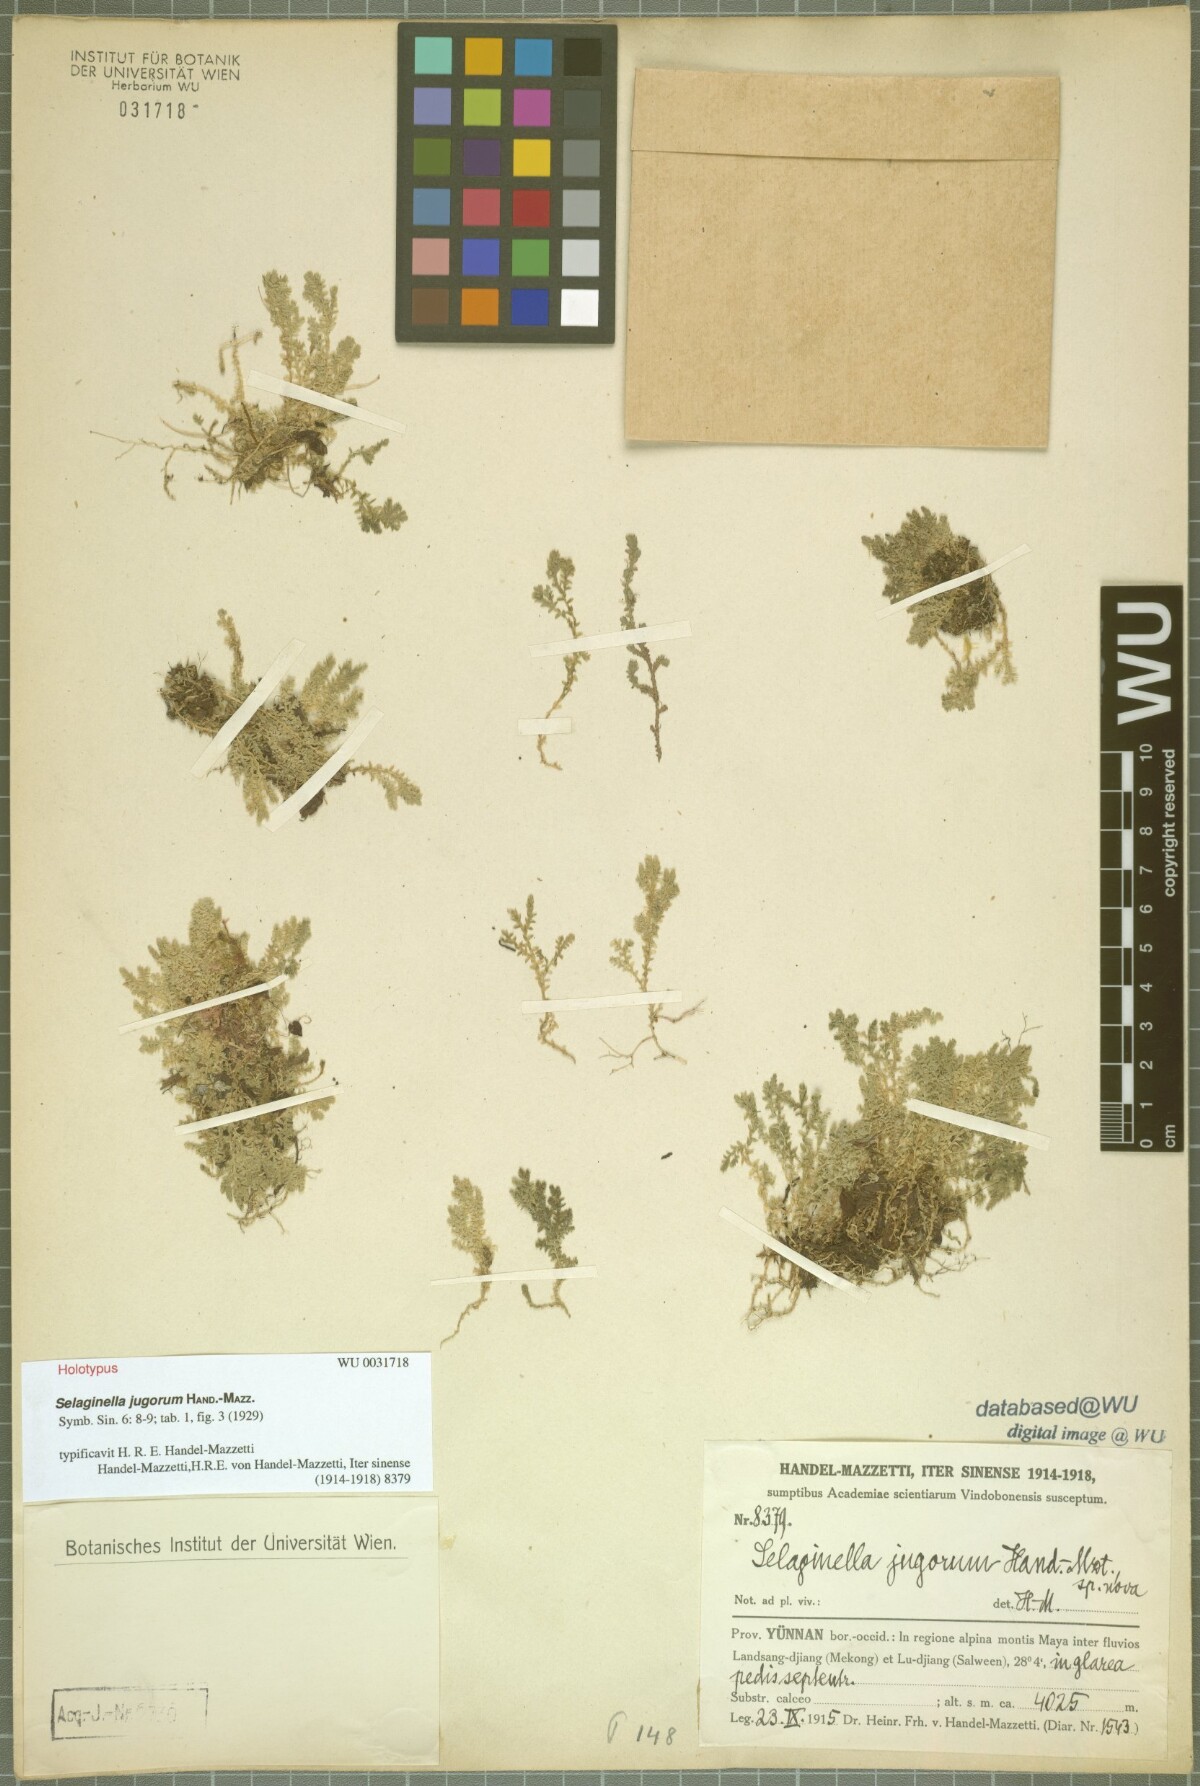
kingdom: Plantae
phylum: Tracheophyta
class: Lycopodiopsida
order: Selaginellales
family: Selaginellaceae
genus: Selaginella
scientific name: Selaginella jugorum
